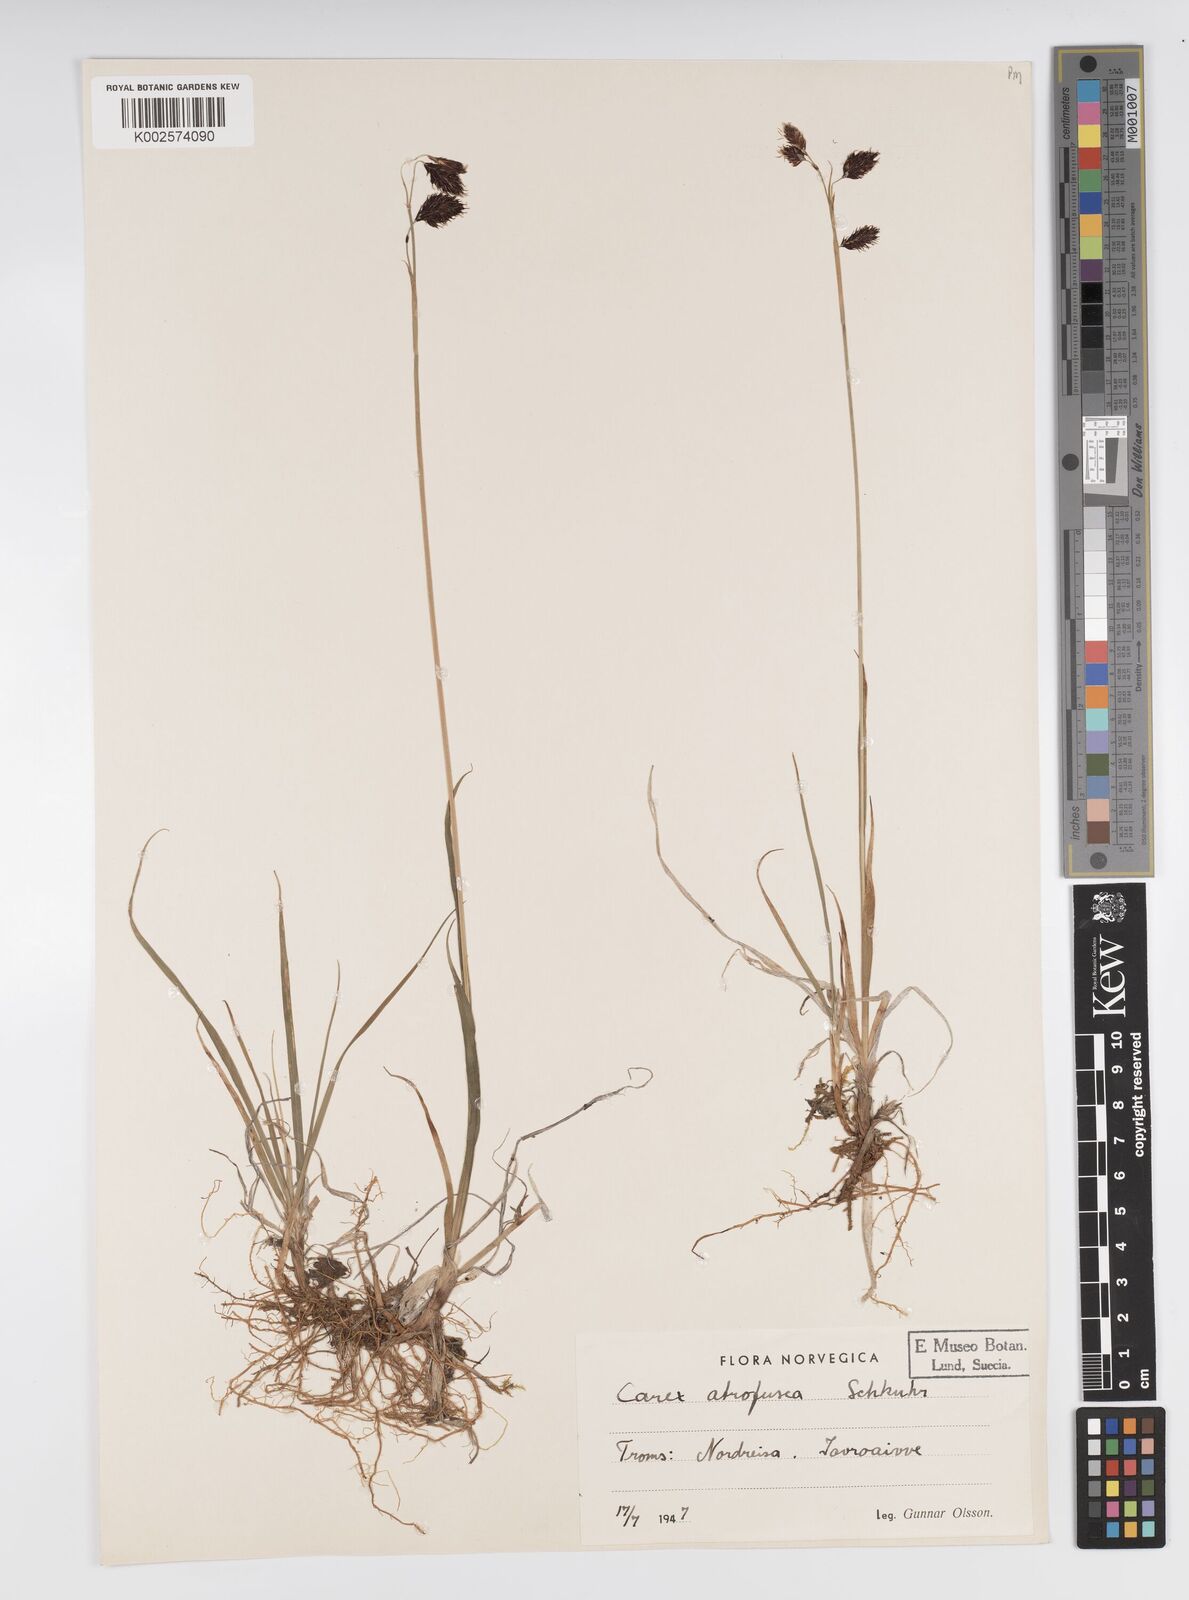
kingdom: Plantae
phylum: Tracheophyta
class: Liliopsida
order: Poales
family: Cyperaceae
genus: Carex
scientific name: Carex atrofusca
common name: Scorched alpine-sedge
